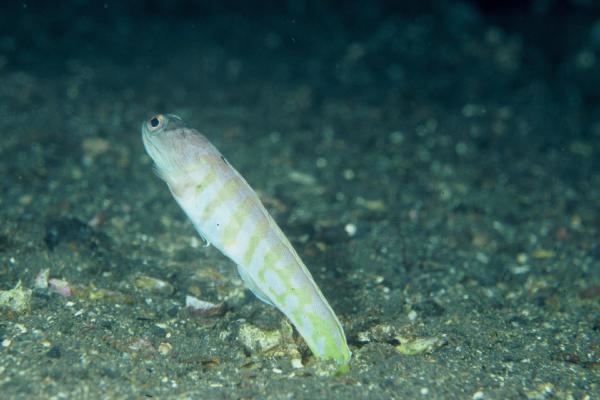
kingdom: Animalia
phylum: Chordata
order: Perciformes
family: Opistognathidae
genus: Opistognathus
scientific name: Opistognathus
